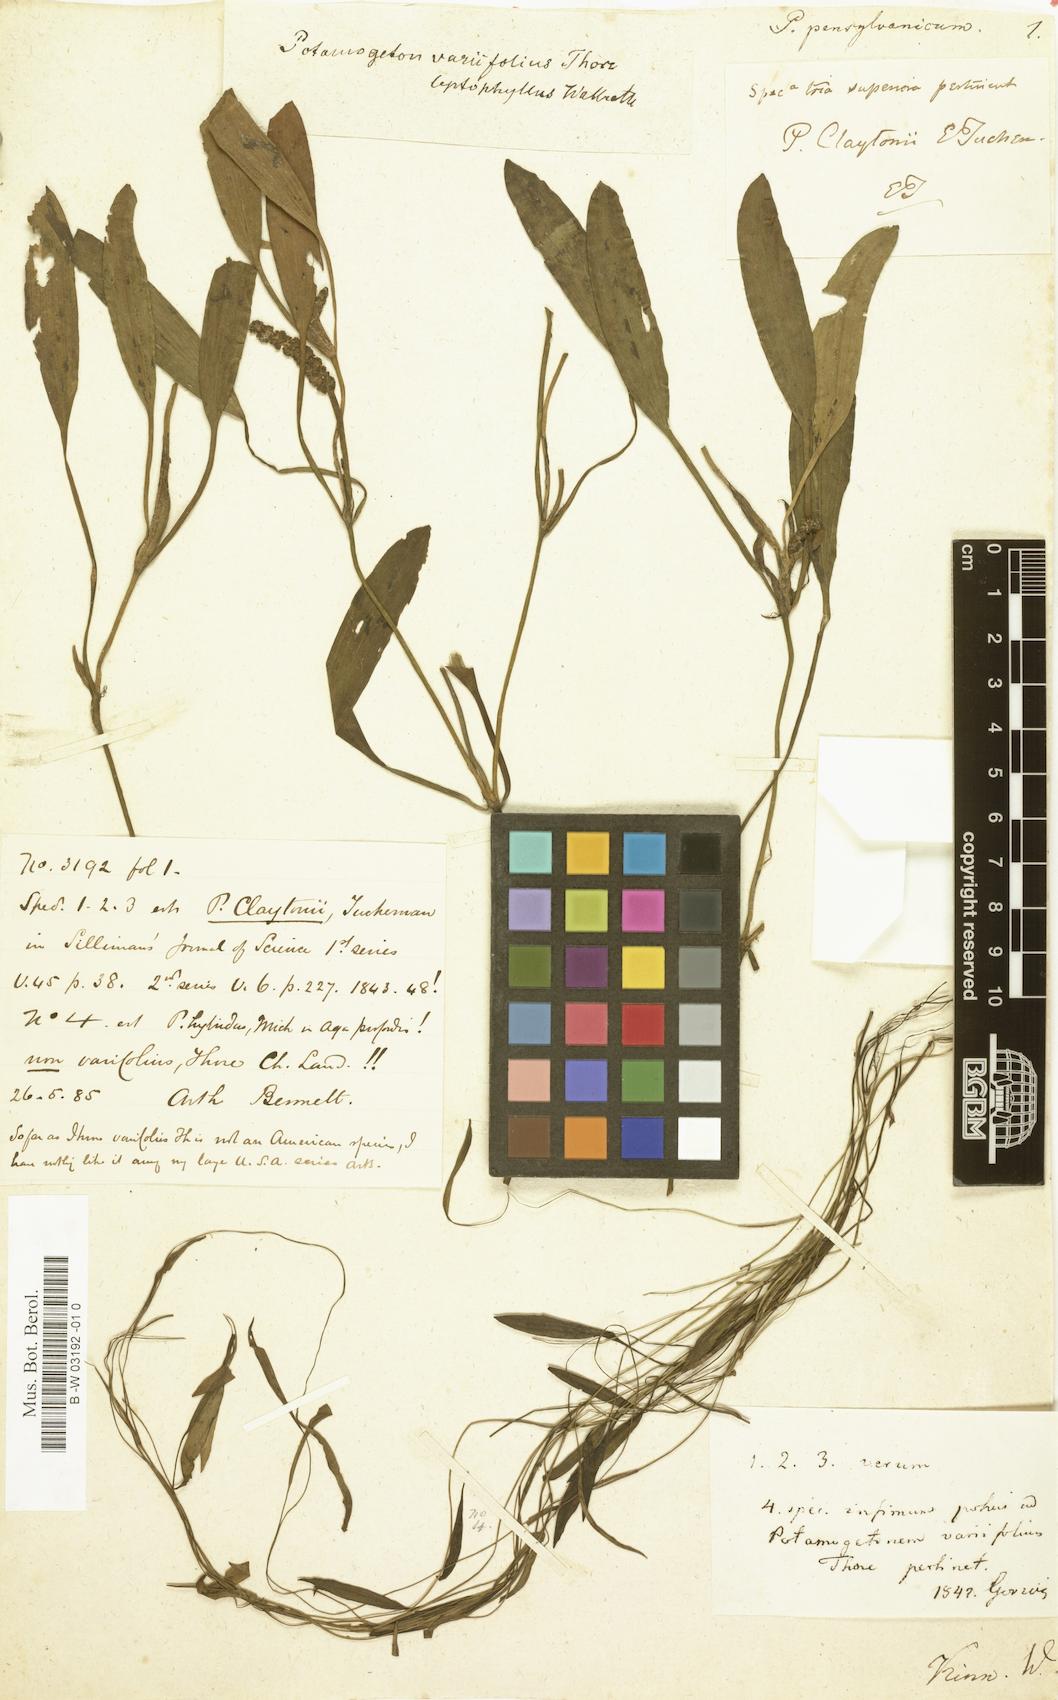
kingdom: Plantae
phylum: Tracheophyta
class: Liliopsida
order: Alismatales
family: Potamogetonaceae
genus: Potamogeton
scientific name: Potamogeton epihydrus
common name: American pondweed
